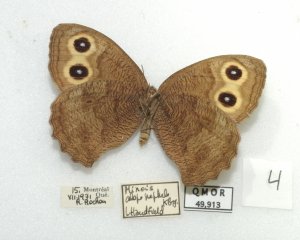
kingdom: Animalia
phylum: Arthropoda
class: Insecta
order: Lepidoptera
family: Nymphalidae
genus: Cercyonis
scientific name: Cercyonis pegala
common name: Common Wood-Nymph
